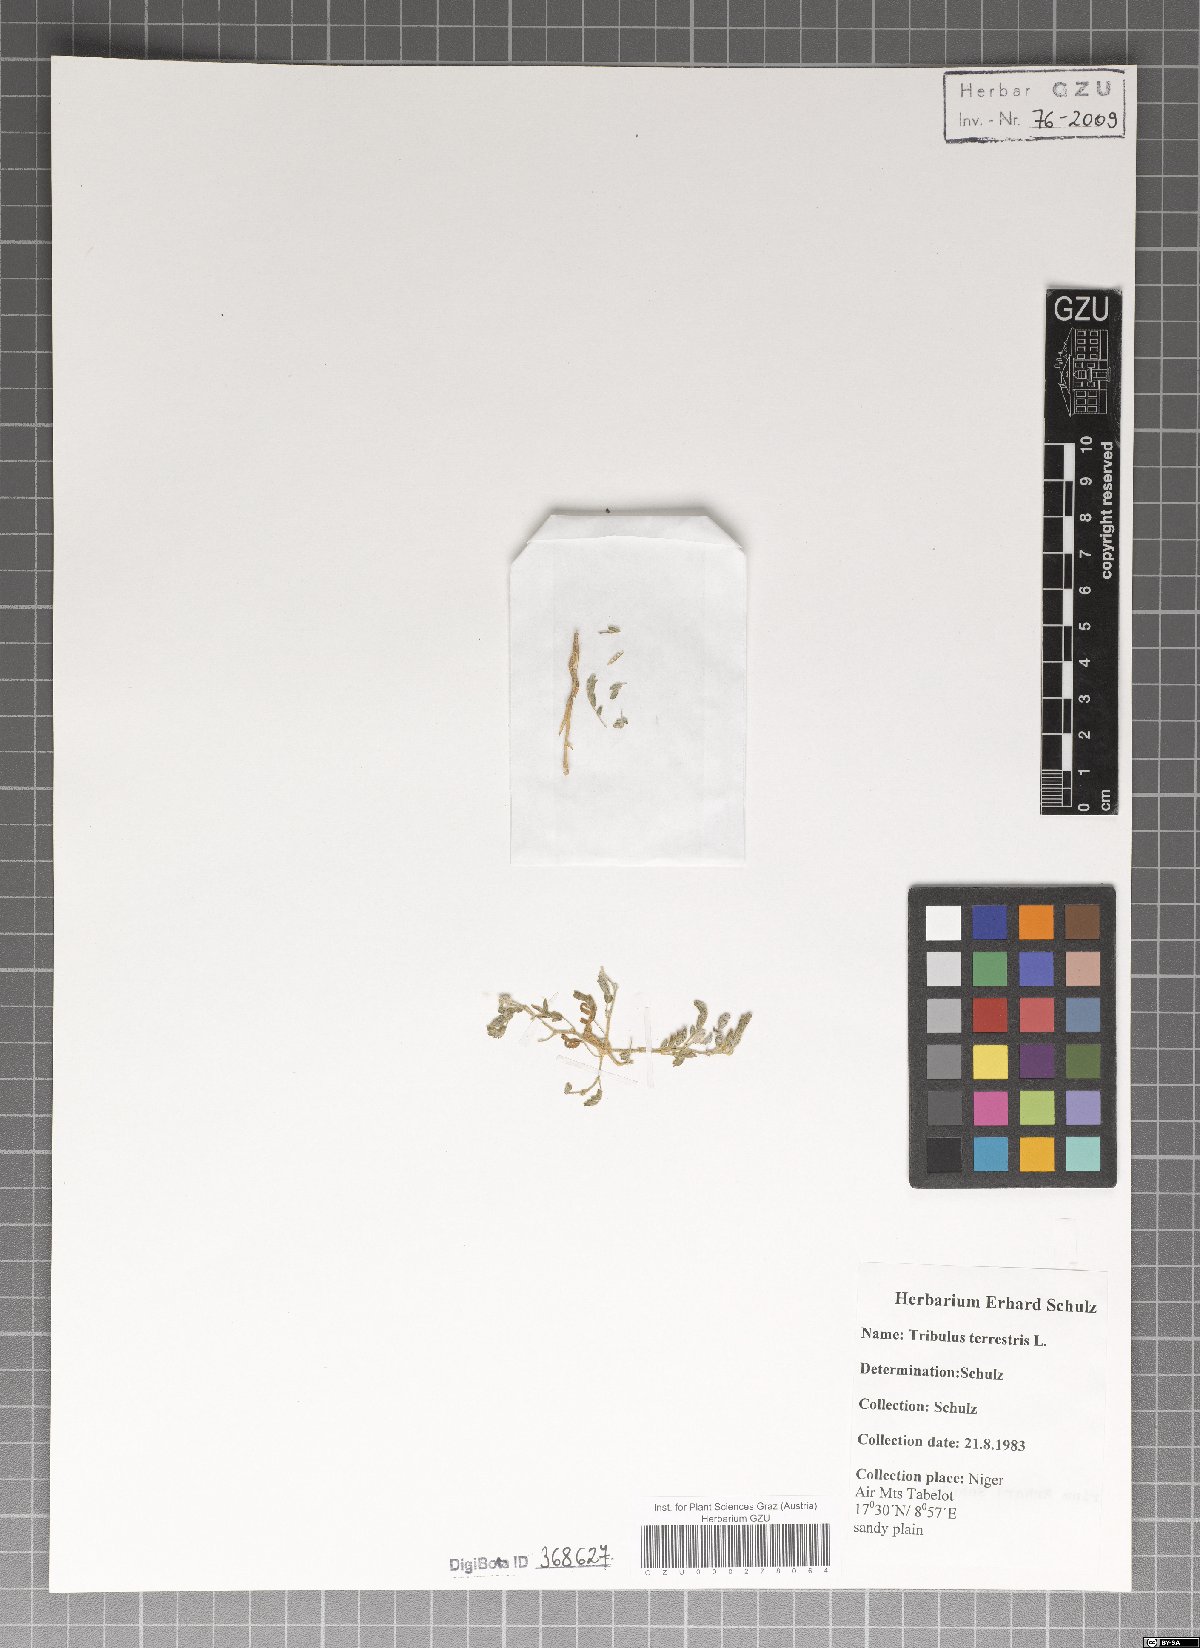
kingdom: Plantae
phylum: Tracheophyta
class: Magnoliopsida
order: Zygophyllales
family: Zygophyllaceae
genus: Tribulus
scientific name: Tribulus terrestris
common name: Puncturevine
